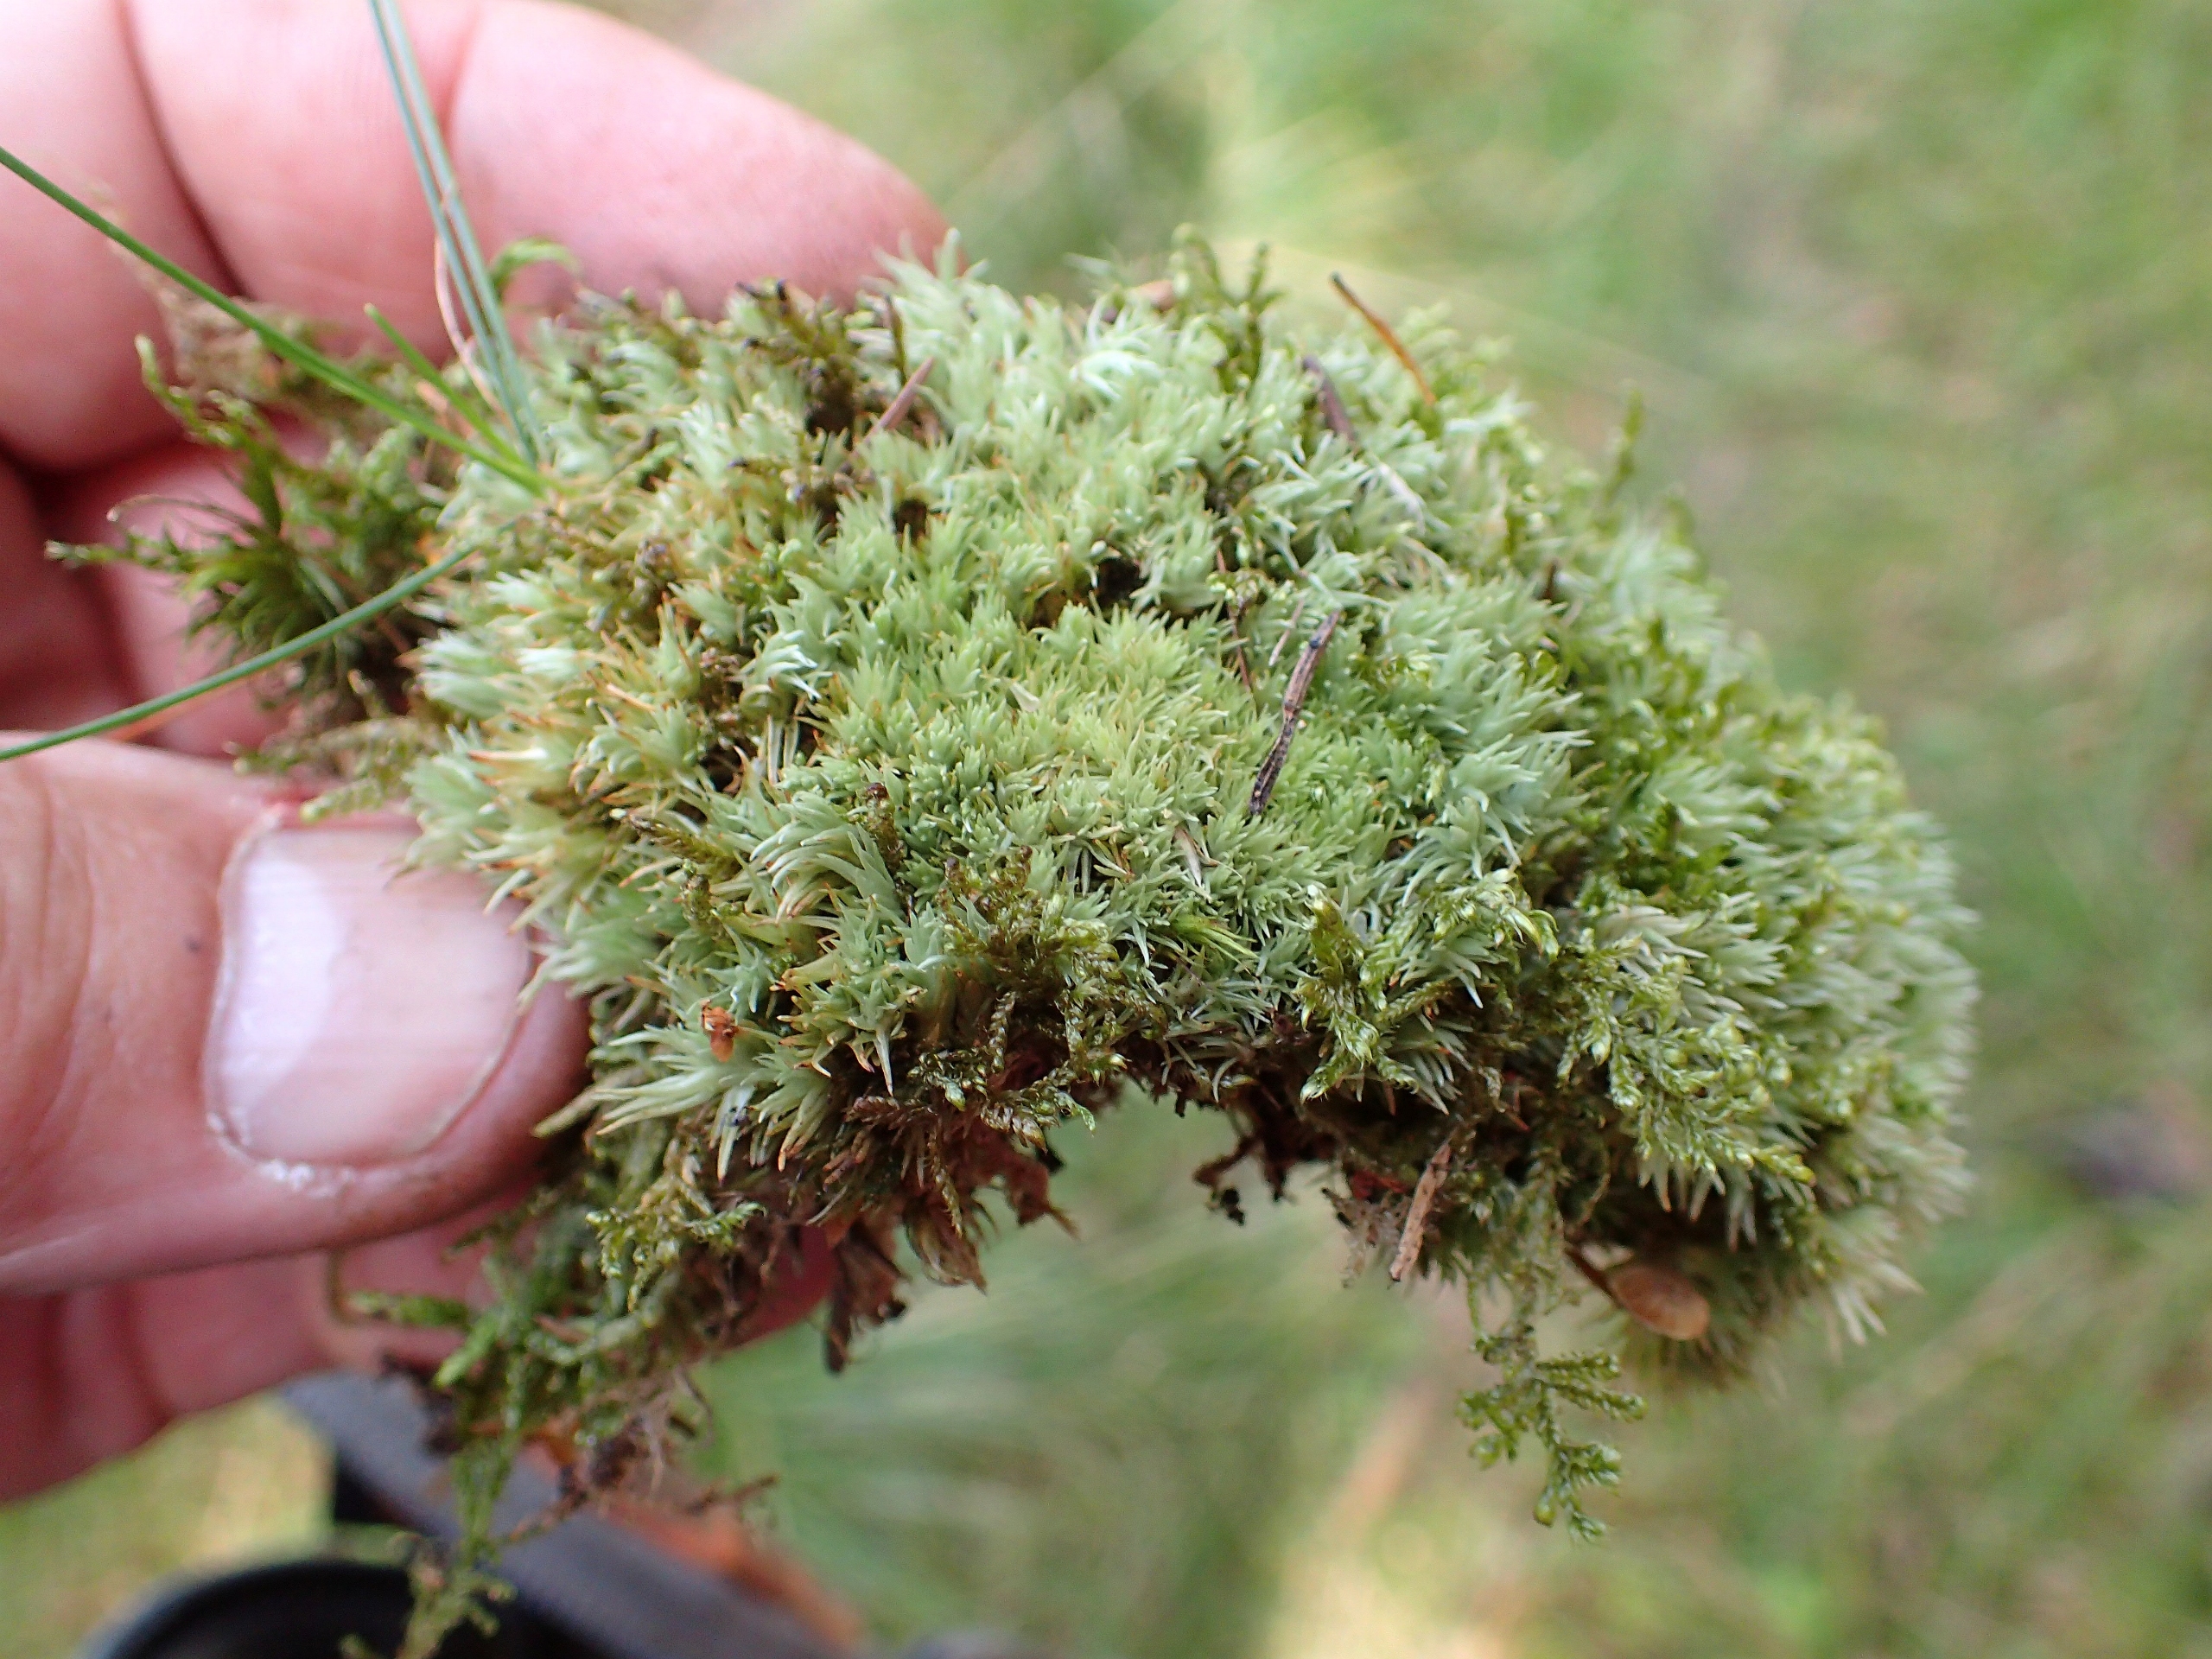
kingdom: Plantae
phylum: Bryophyta
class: Bryopsida
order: Dicranales
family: Leucobryaceae
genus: Leucobryum
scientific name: Leucobryum glaucum
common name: Almindelig hvidmos
